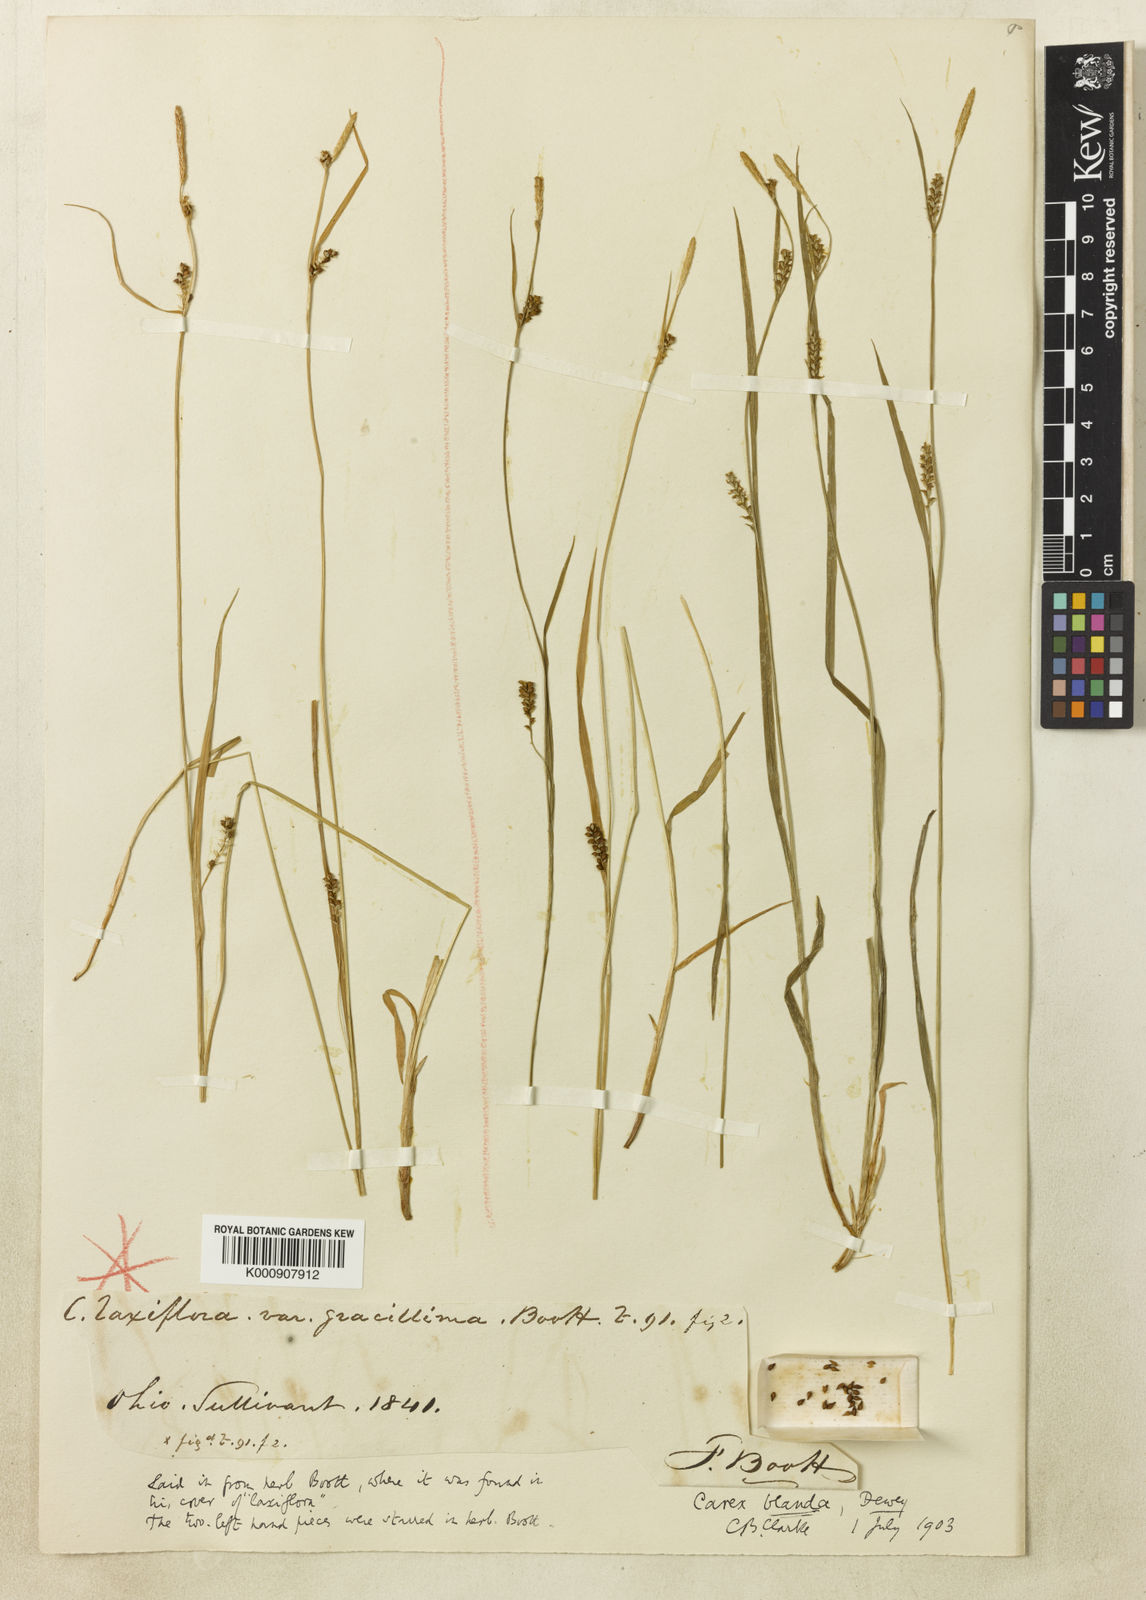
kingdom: Plantae
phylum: Tracheophyta
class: Liliopsida
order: Poales
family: Cyperaceae
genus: Carex
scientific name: Carex laxiflora
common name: Beech wood sedge
